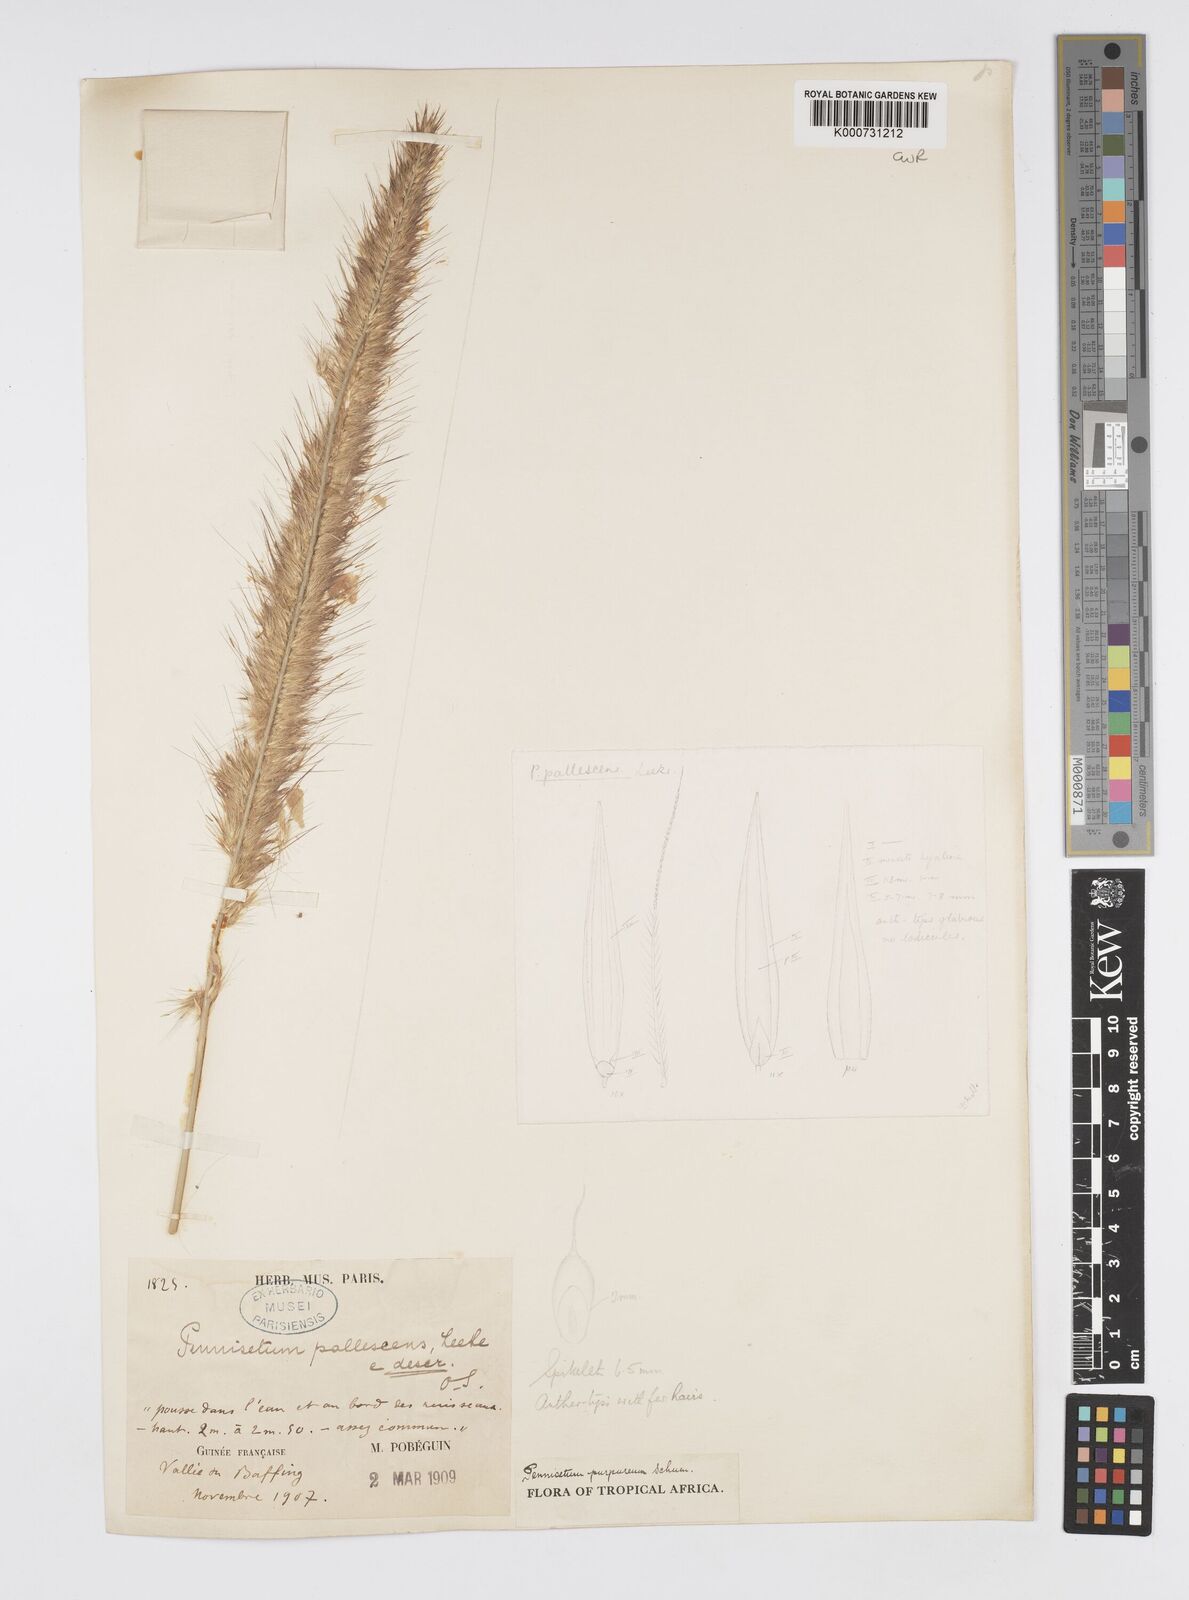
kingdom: Plantae
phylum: Tracheophyta
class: Liliopsida
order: Poales
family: Poaceae
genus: Cenchrus
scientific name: Cenchrus purpureus
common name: Elephant grass
